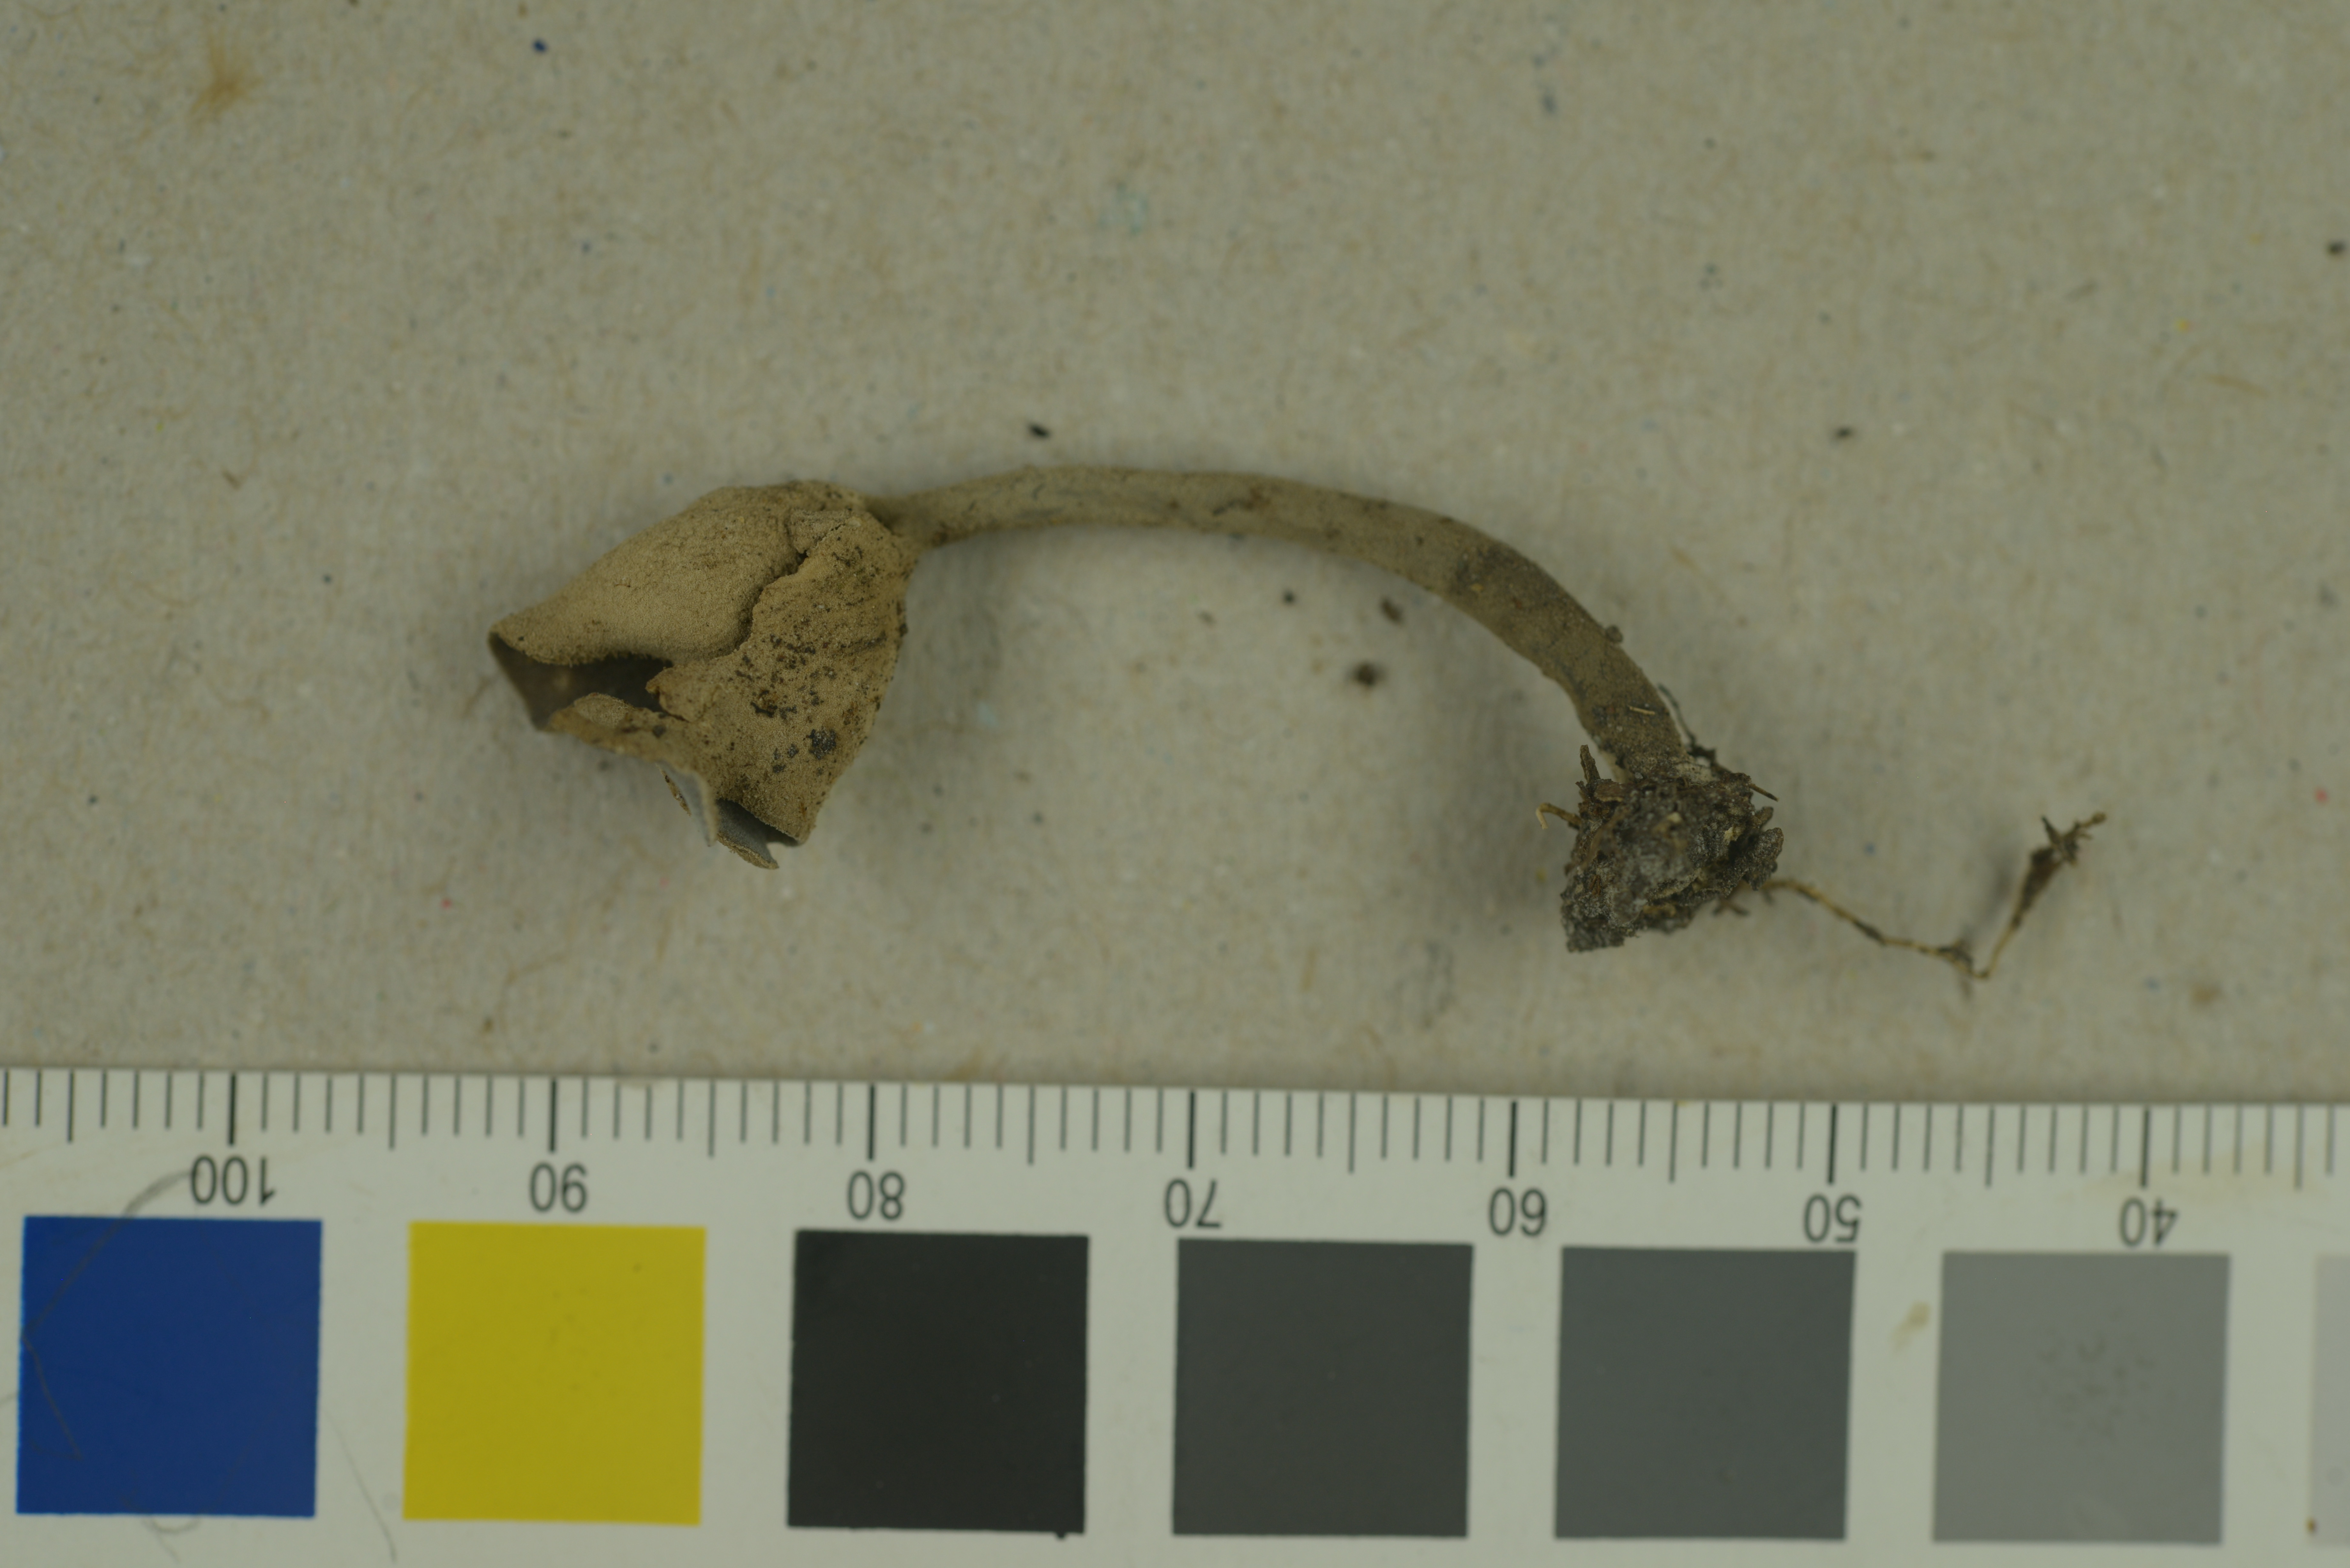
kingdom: Fungi
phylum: Ascomycota
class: Pezizomycetes
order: Pezizales
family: Helvellaceae
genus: Helvella
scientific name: Helvella macropus
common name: Felt saddle
